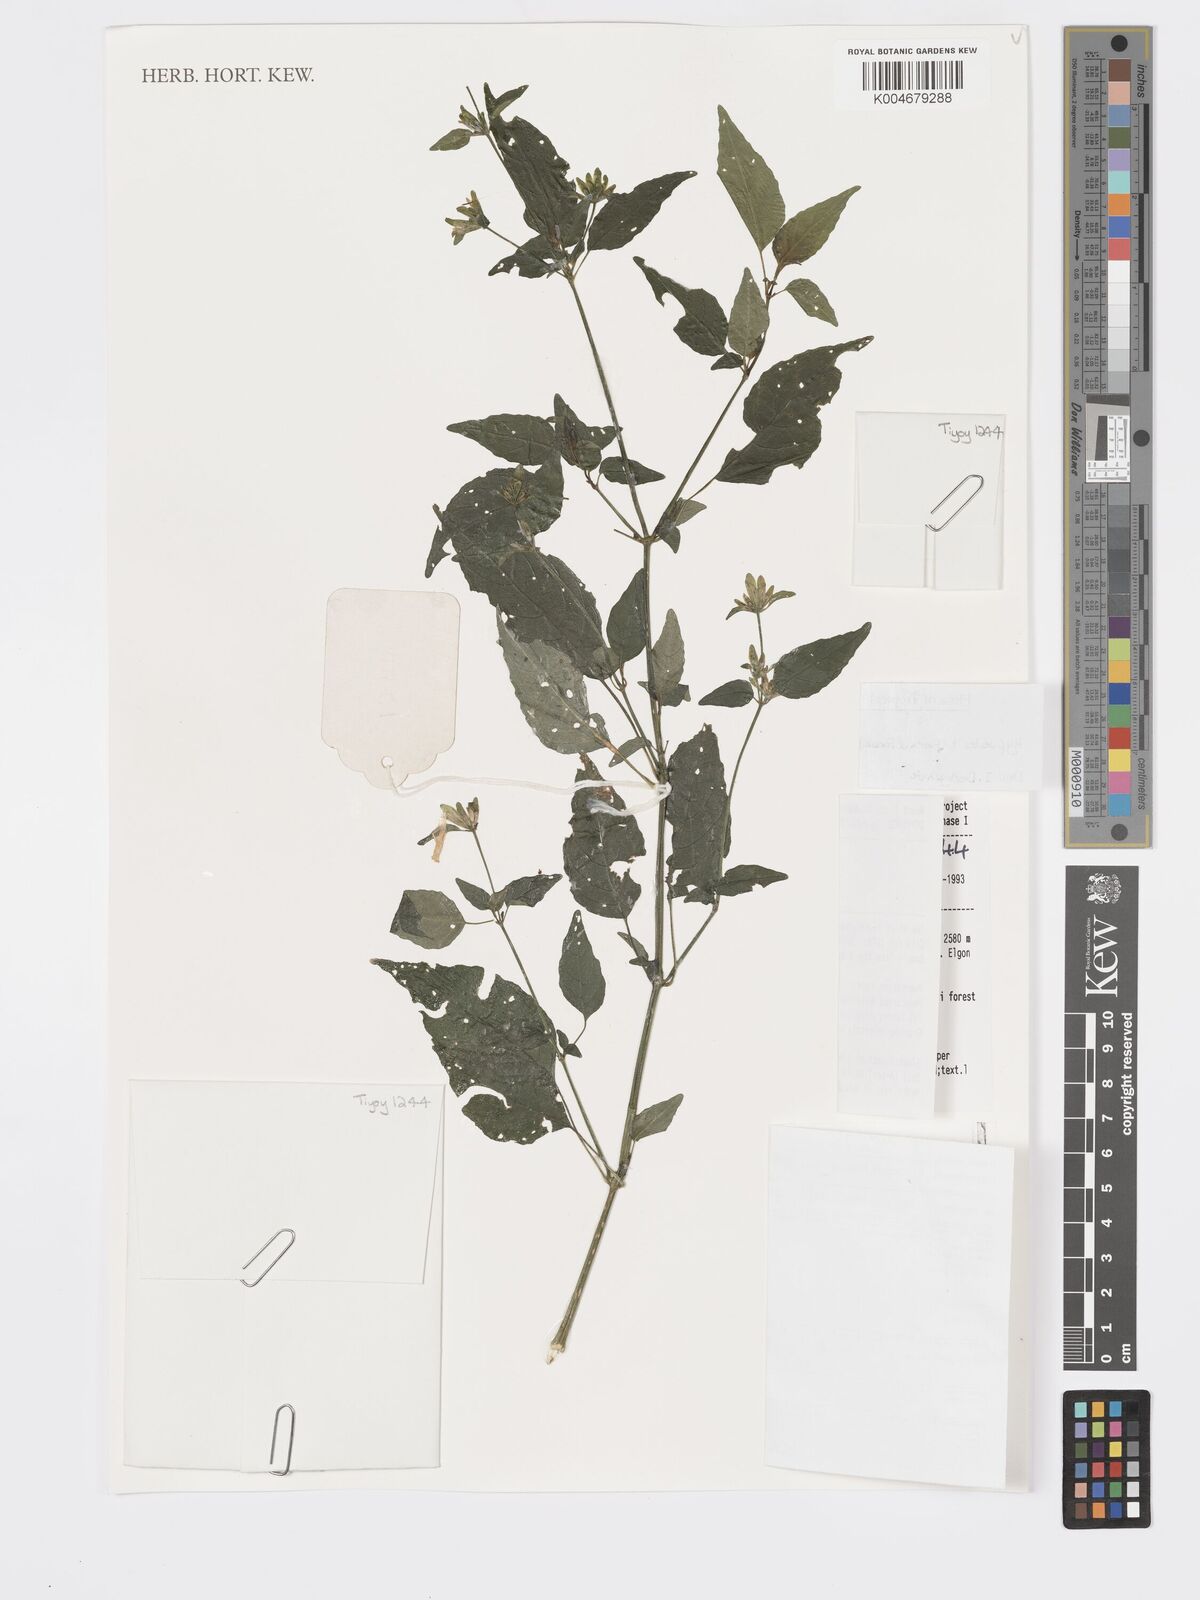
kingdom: Plantae
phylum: Tracheophyta
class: Magnoliopsida
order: Lamiales
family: Acanthaceae
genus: Hypoestes
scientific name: Hypoestes triflora
